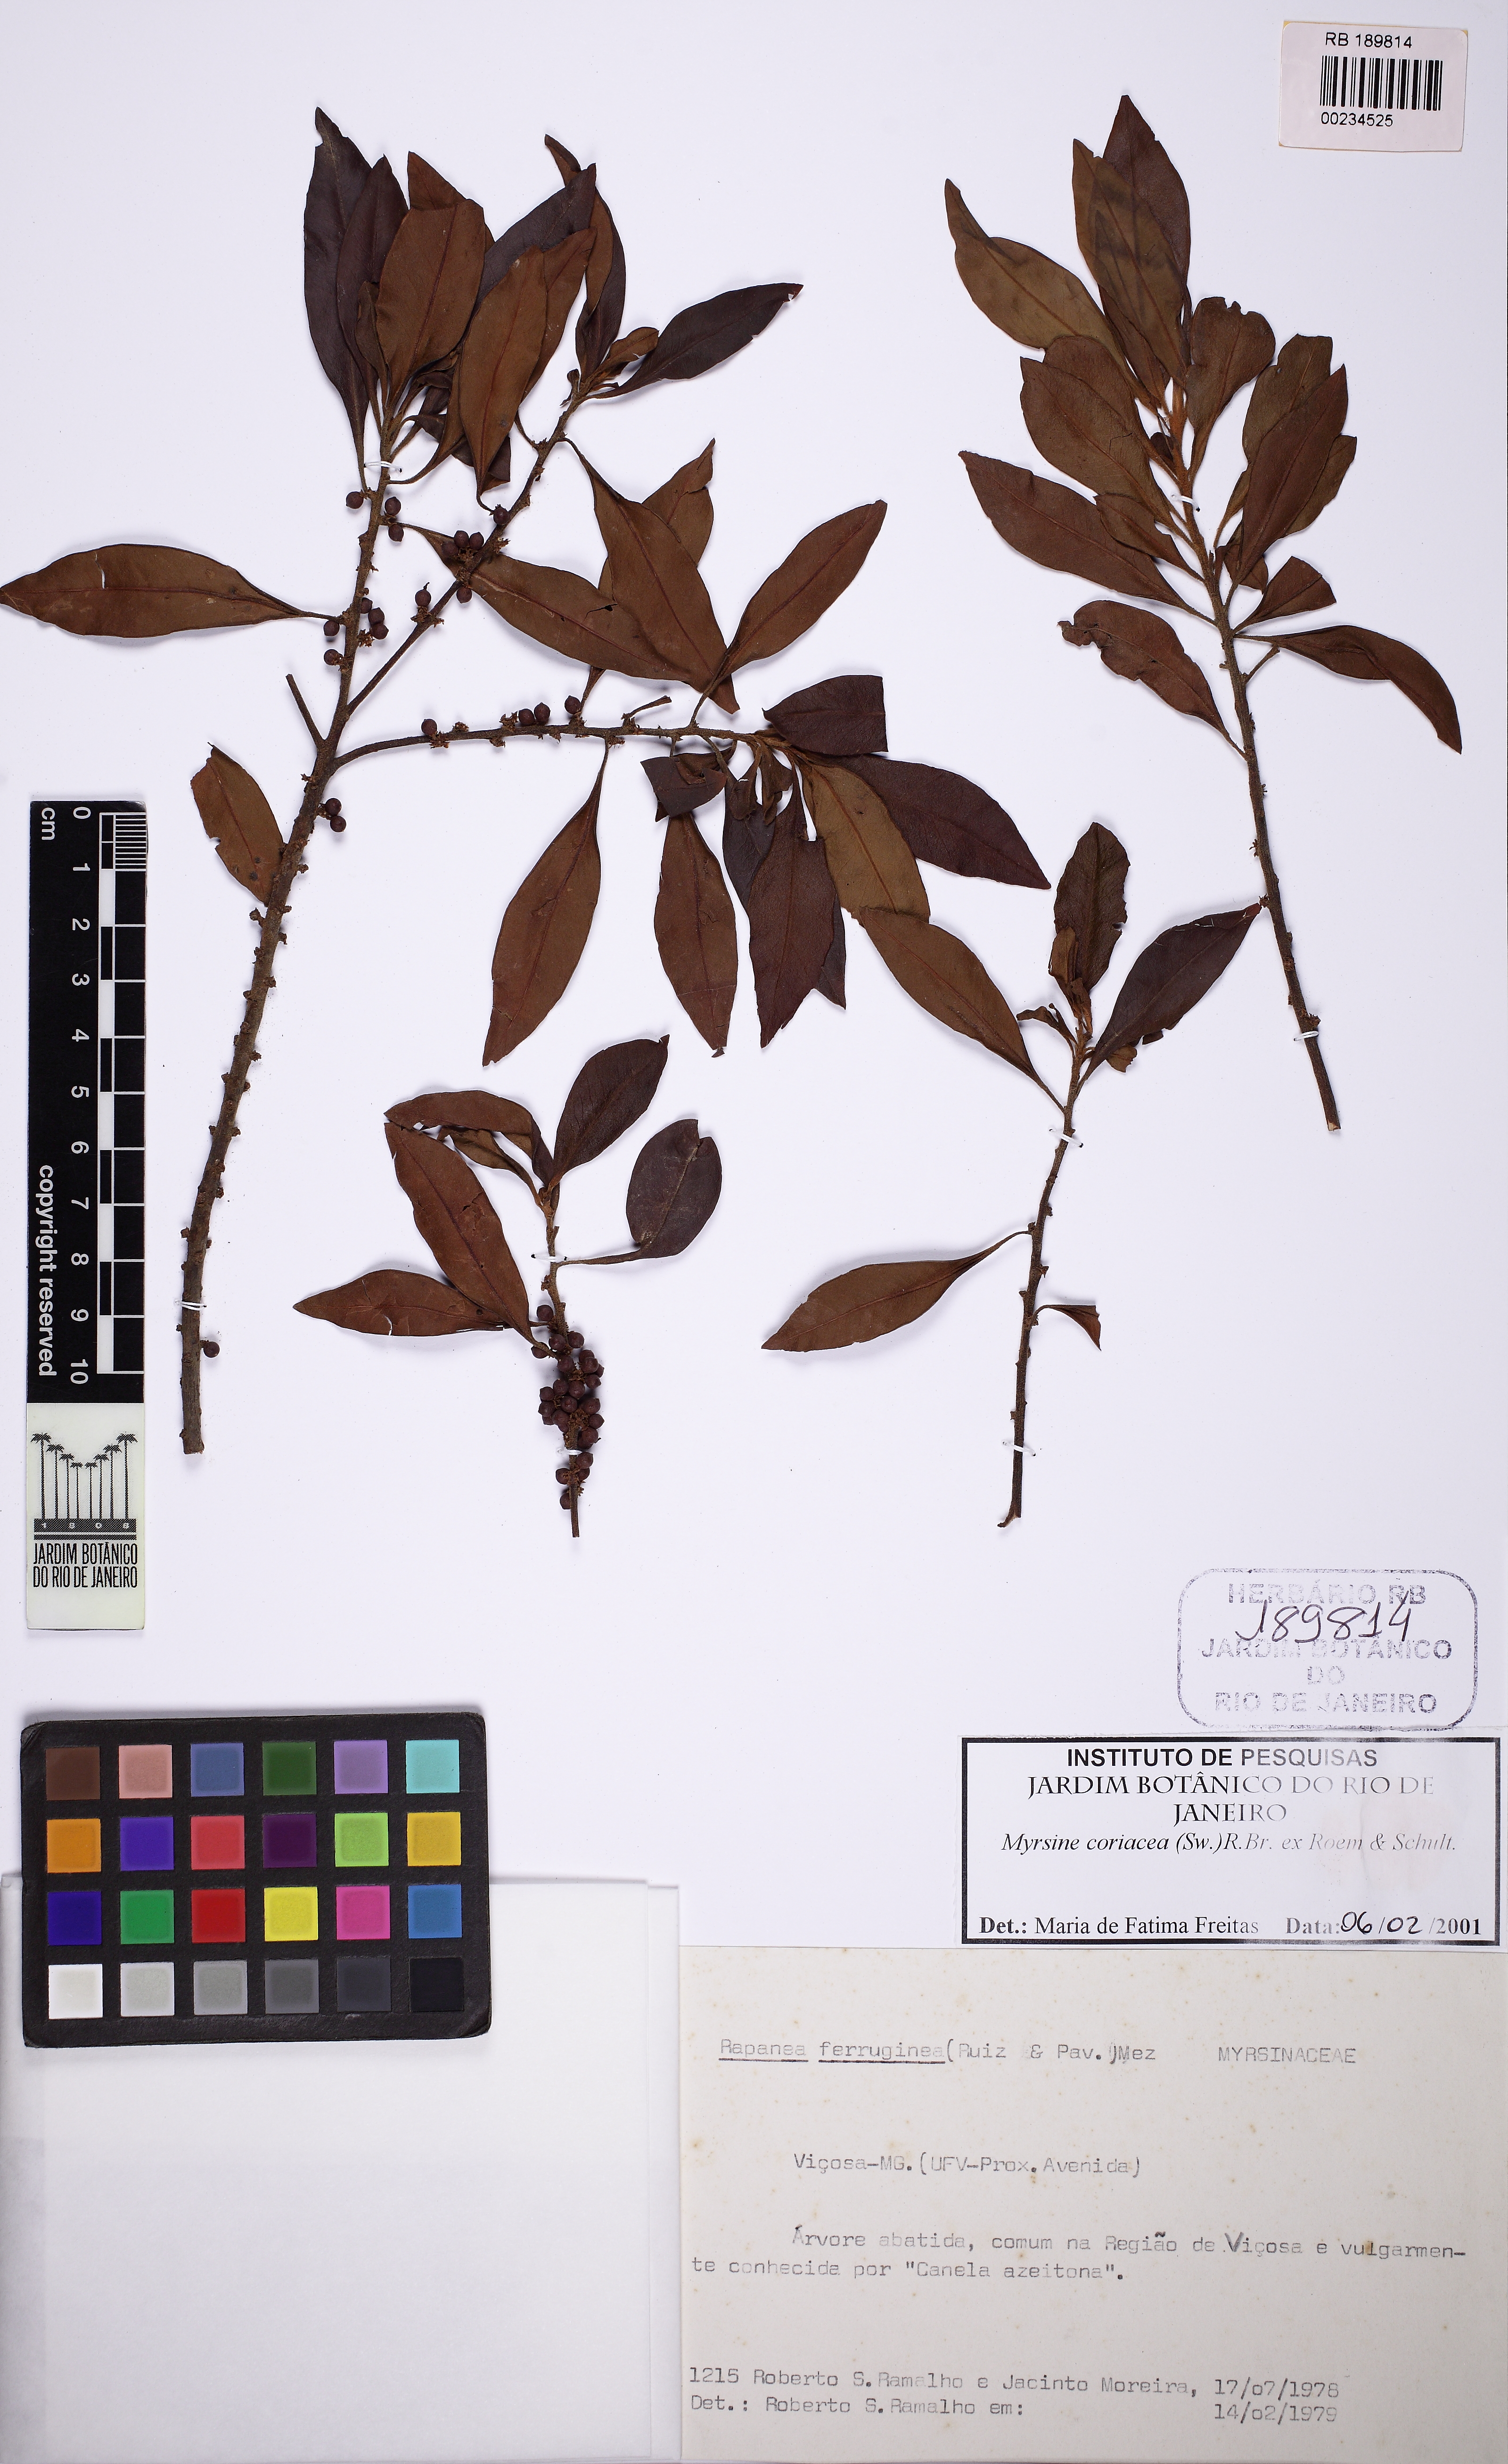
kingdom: Plantae
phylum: Tracheophyta
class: Magnoliopsida
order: Ericales
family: Primulaceae
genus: Myrsine
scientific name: Myrsine coriacea
